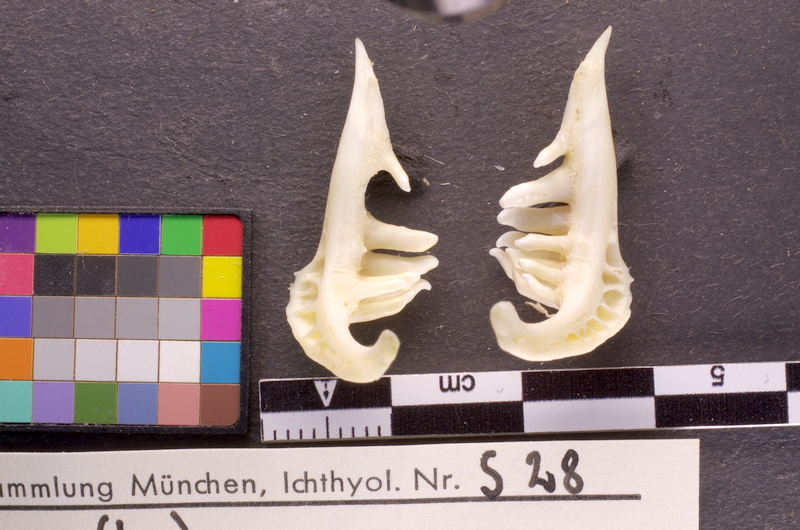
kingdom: Animalia
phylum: Chordata
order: Cypriniformes
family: Cyprinidae
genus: Barbus
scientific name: Barbus barbus
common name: Barbel
